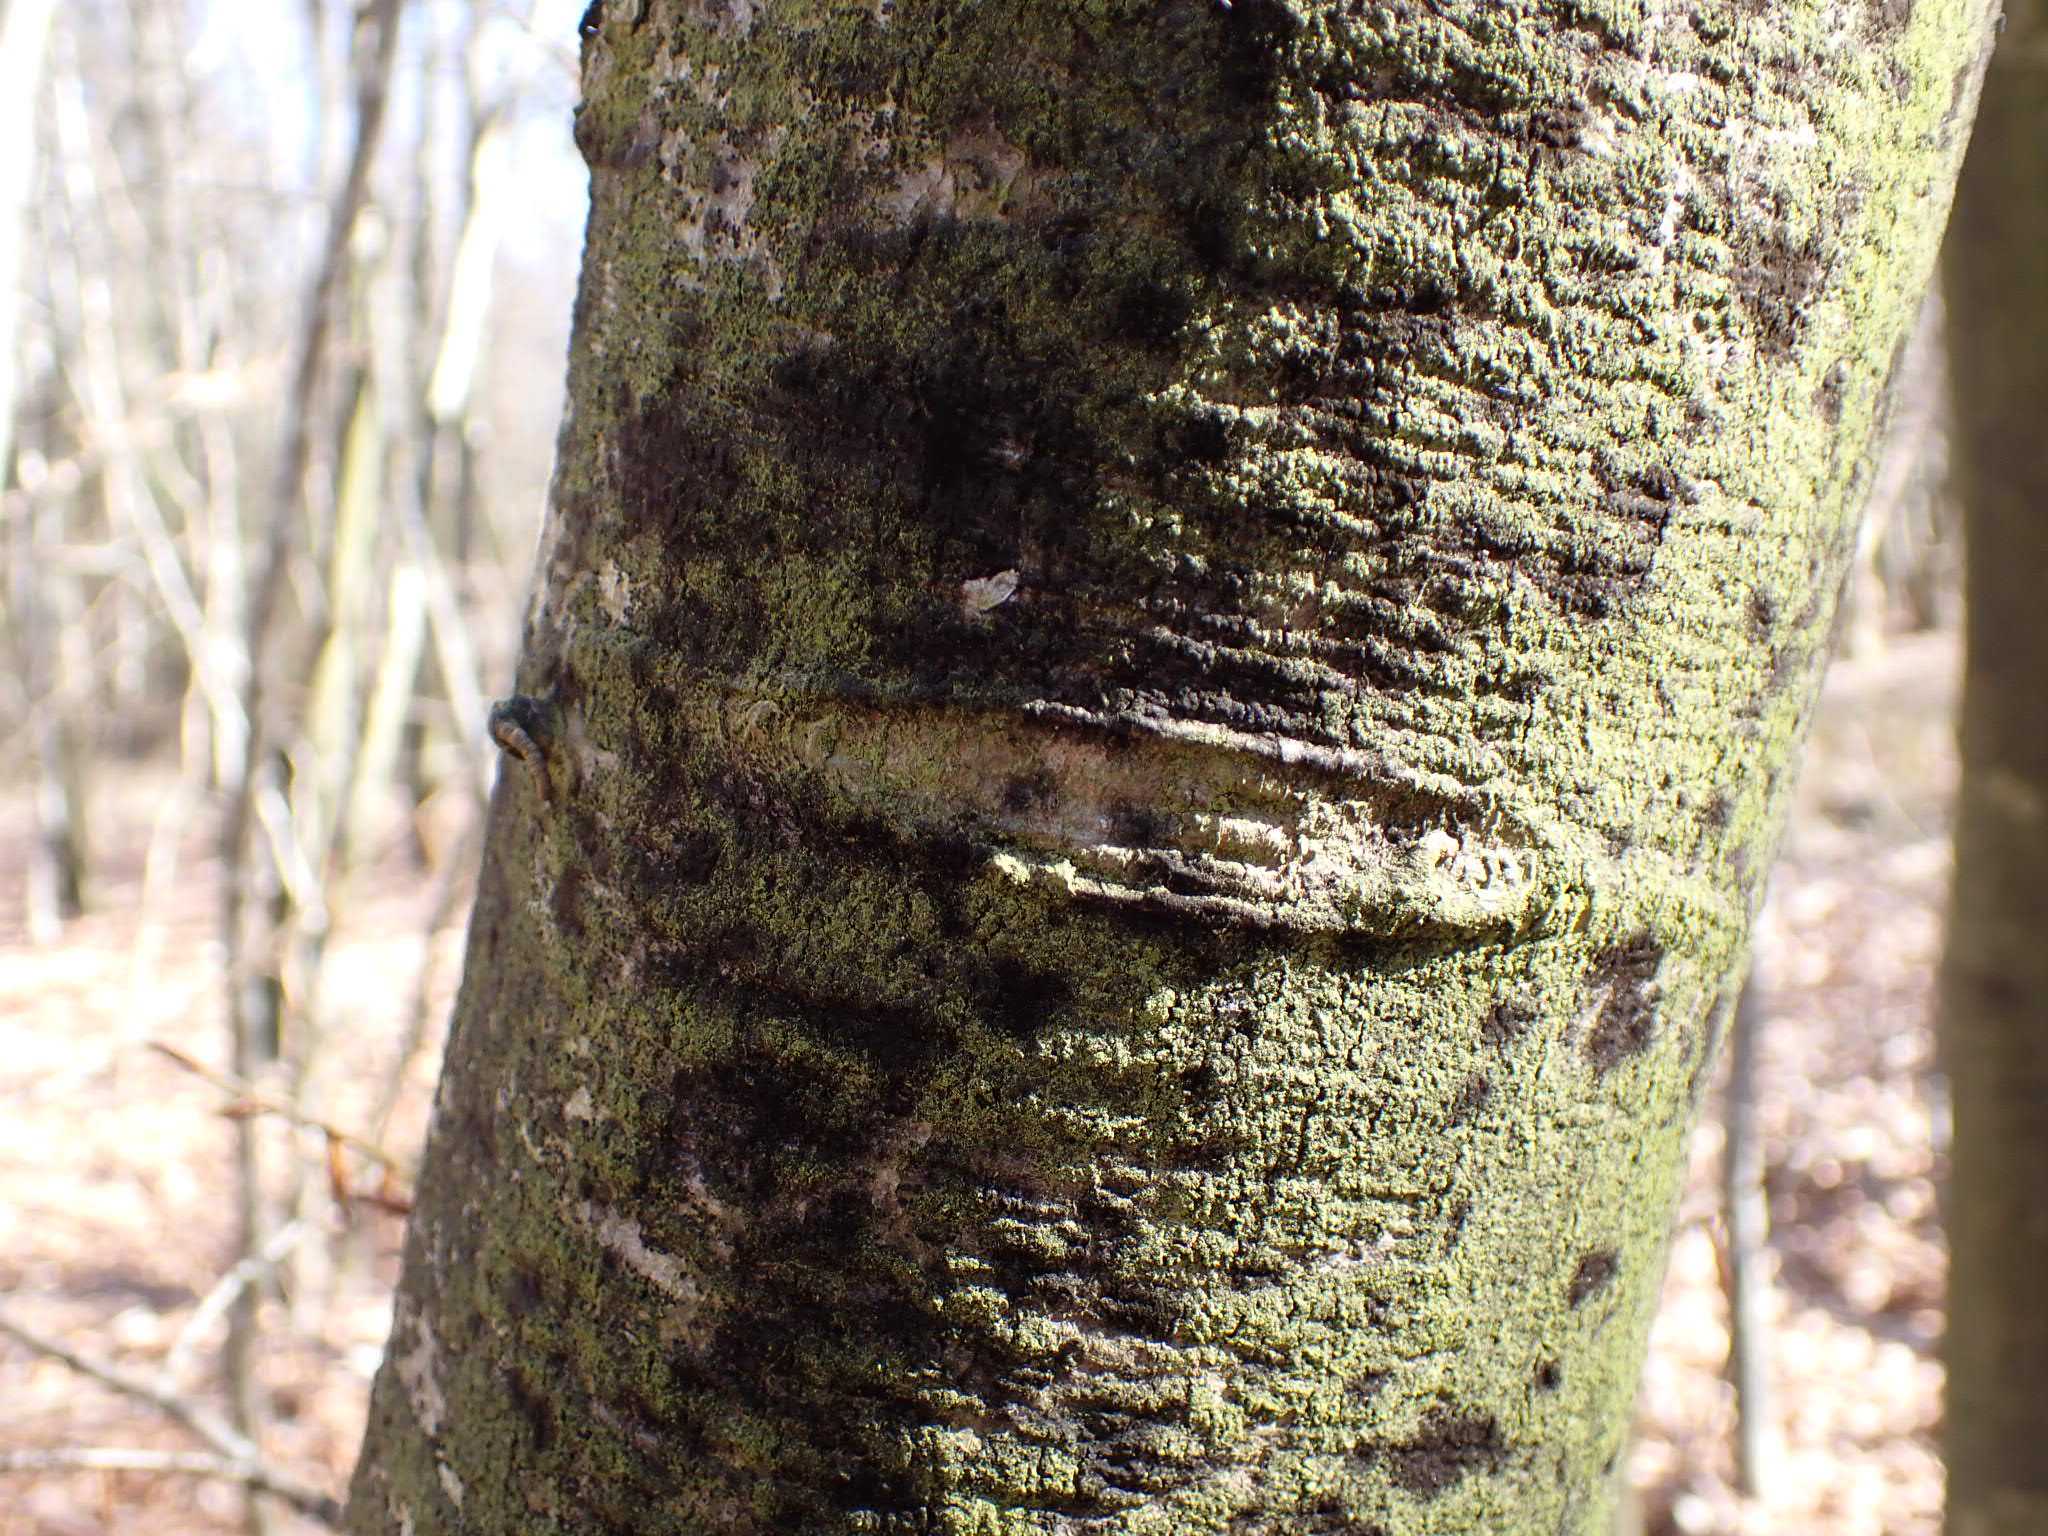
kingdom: Fungi
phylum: Ascomycota
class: Leotiomycetes
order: Rhytismatales
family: Ascodichaenaceae
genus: Ascodichaena
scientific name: Ascodichaena rugosa
